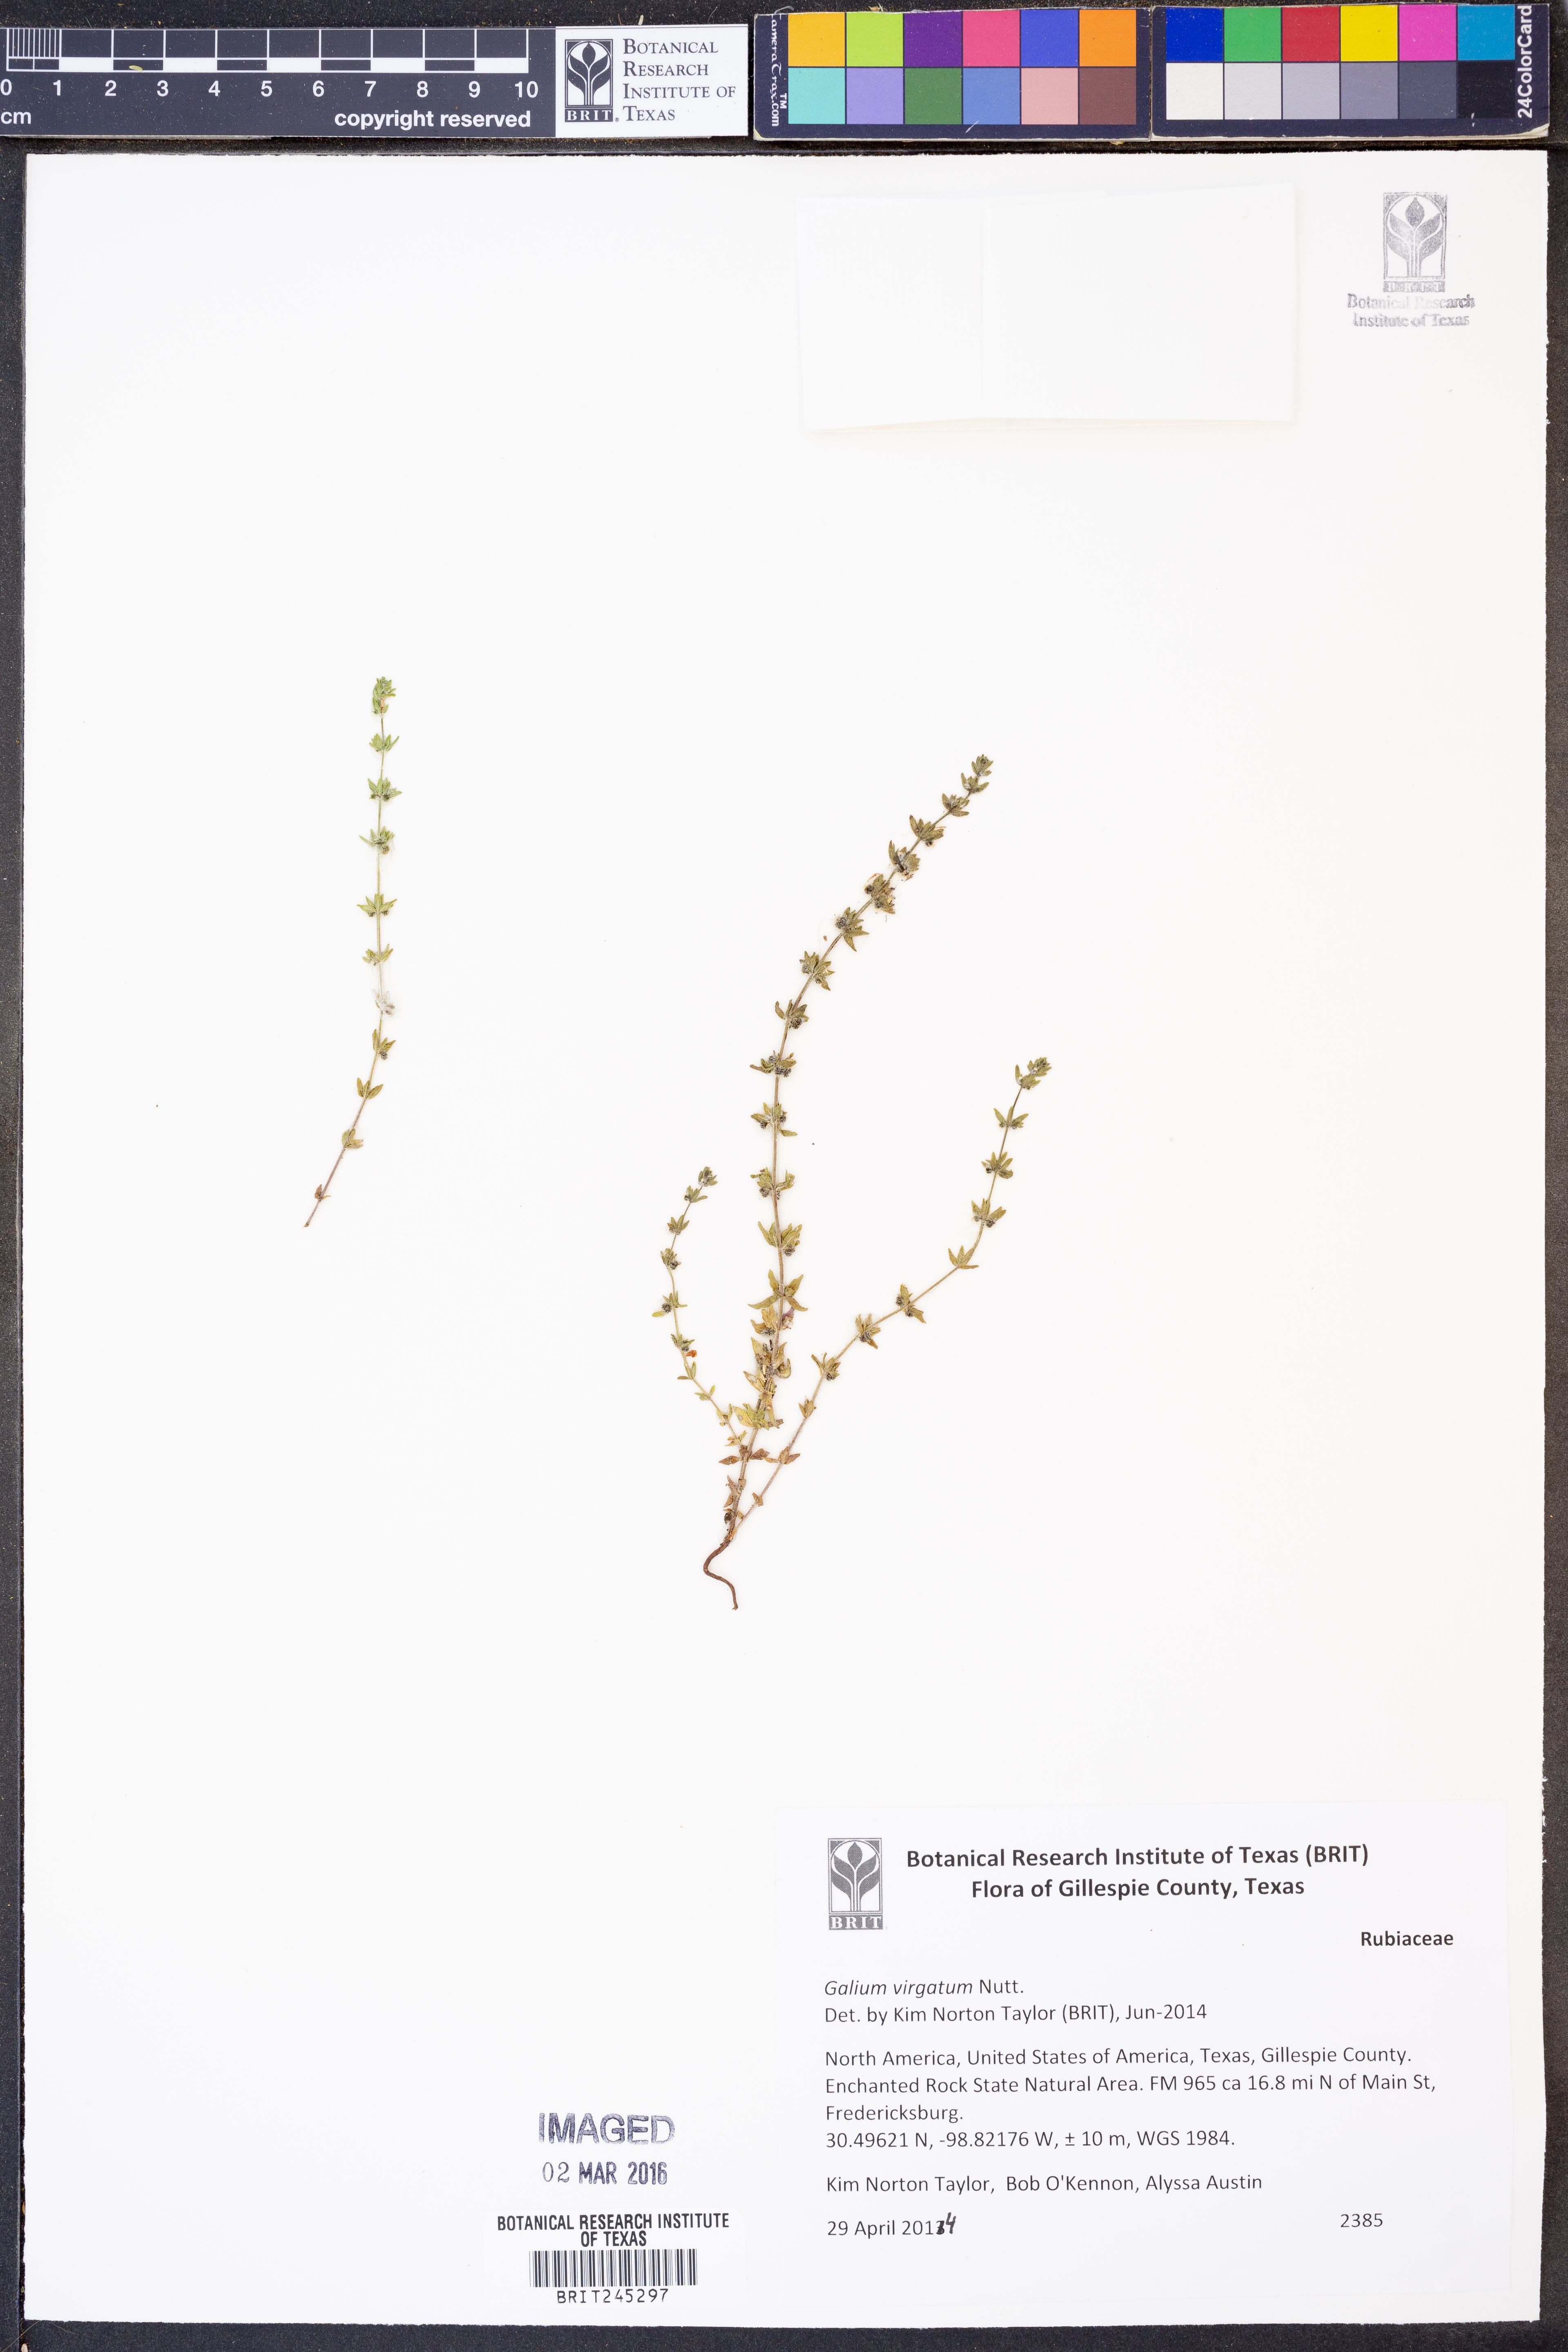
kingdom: Plantae
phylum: Tracheophyta
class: Magnoliopsida
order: Gentianales
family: Rubiaceae
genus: Galium
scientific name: Galium virgatum
